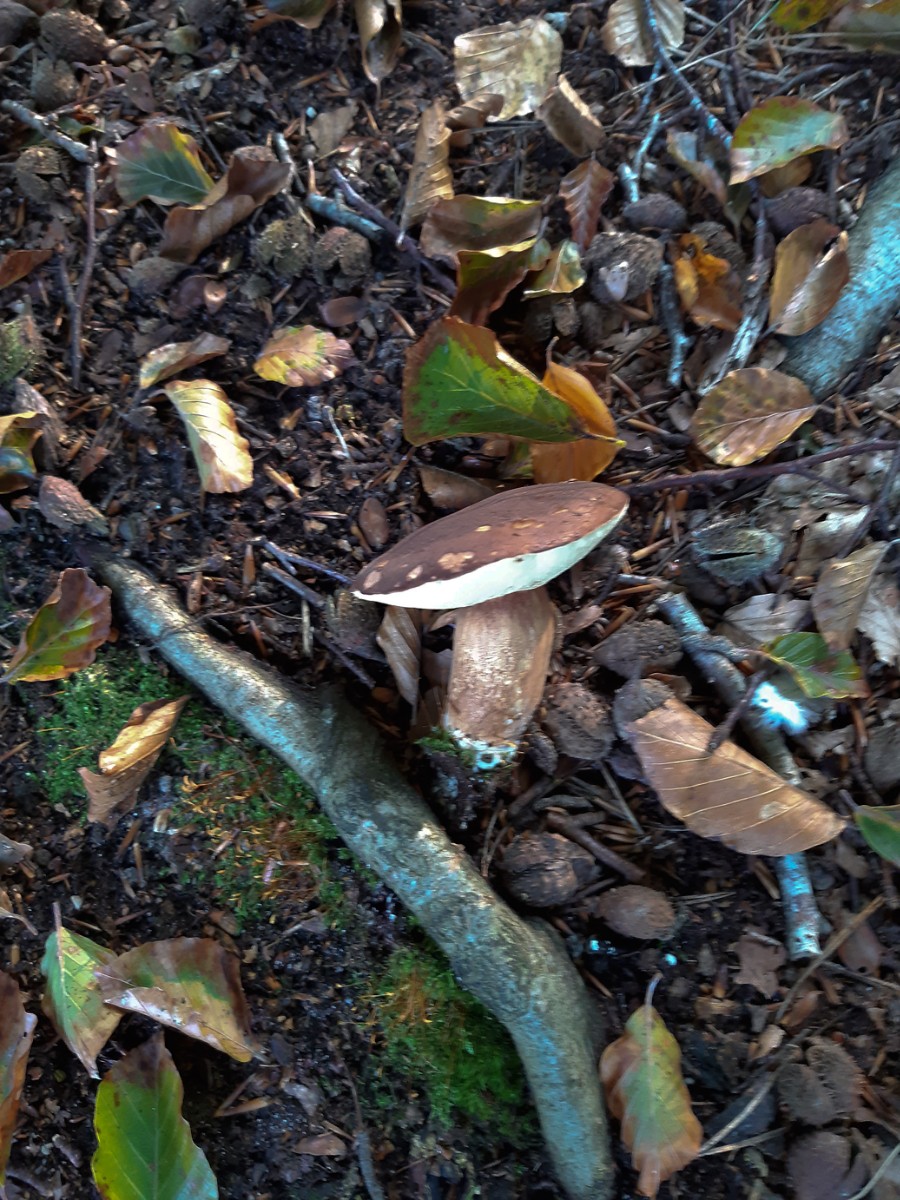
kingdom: Fungi
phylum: Basidiomycota
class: Agaricomycetes
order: Boletales
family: Boletaceae
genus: Imleria
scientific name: Imleria badia
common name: brunstokket rørhat
